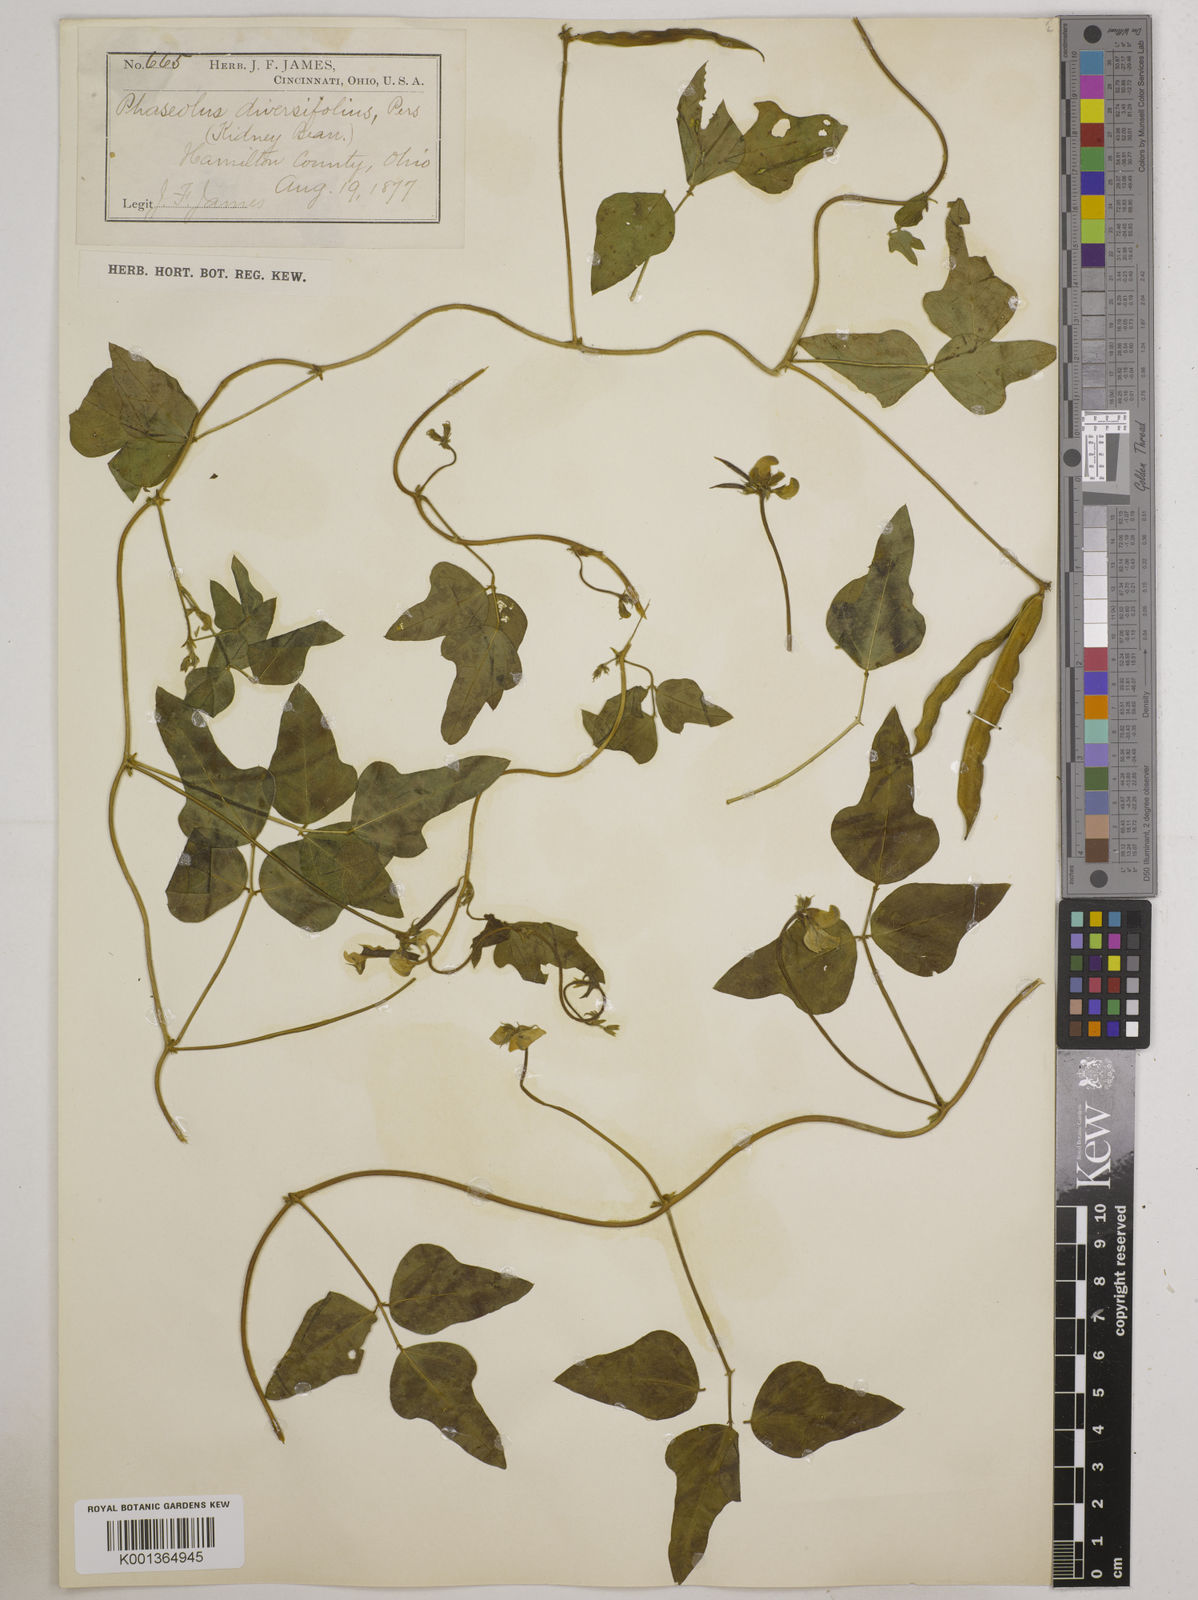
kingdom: Plantae
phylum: Tracheophyta
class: Magnoliopsida
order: Fabales
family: Fabaceae
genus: Strophostyles
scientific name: Strophostyles
